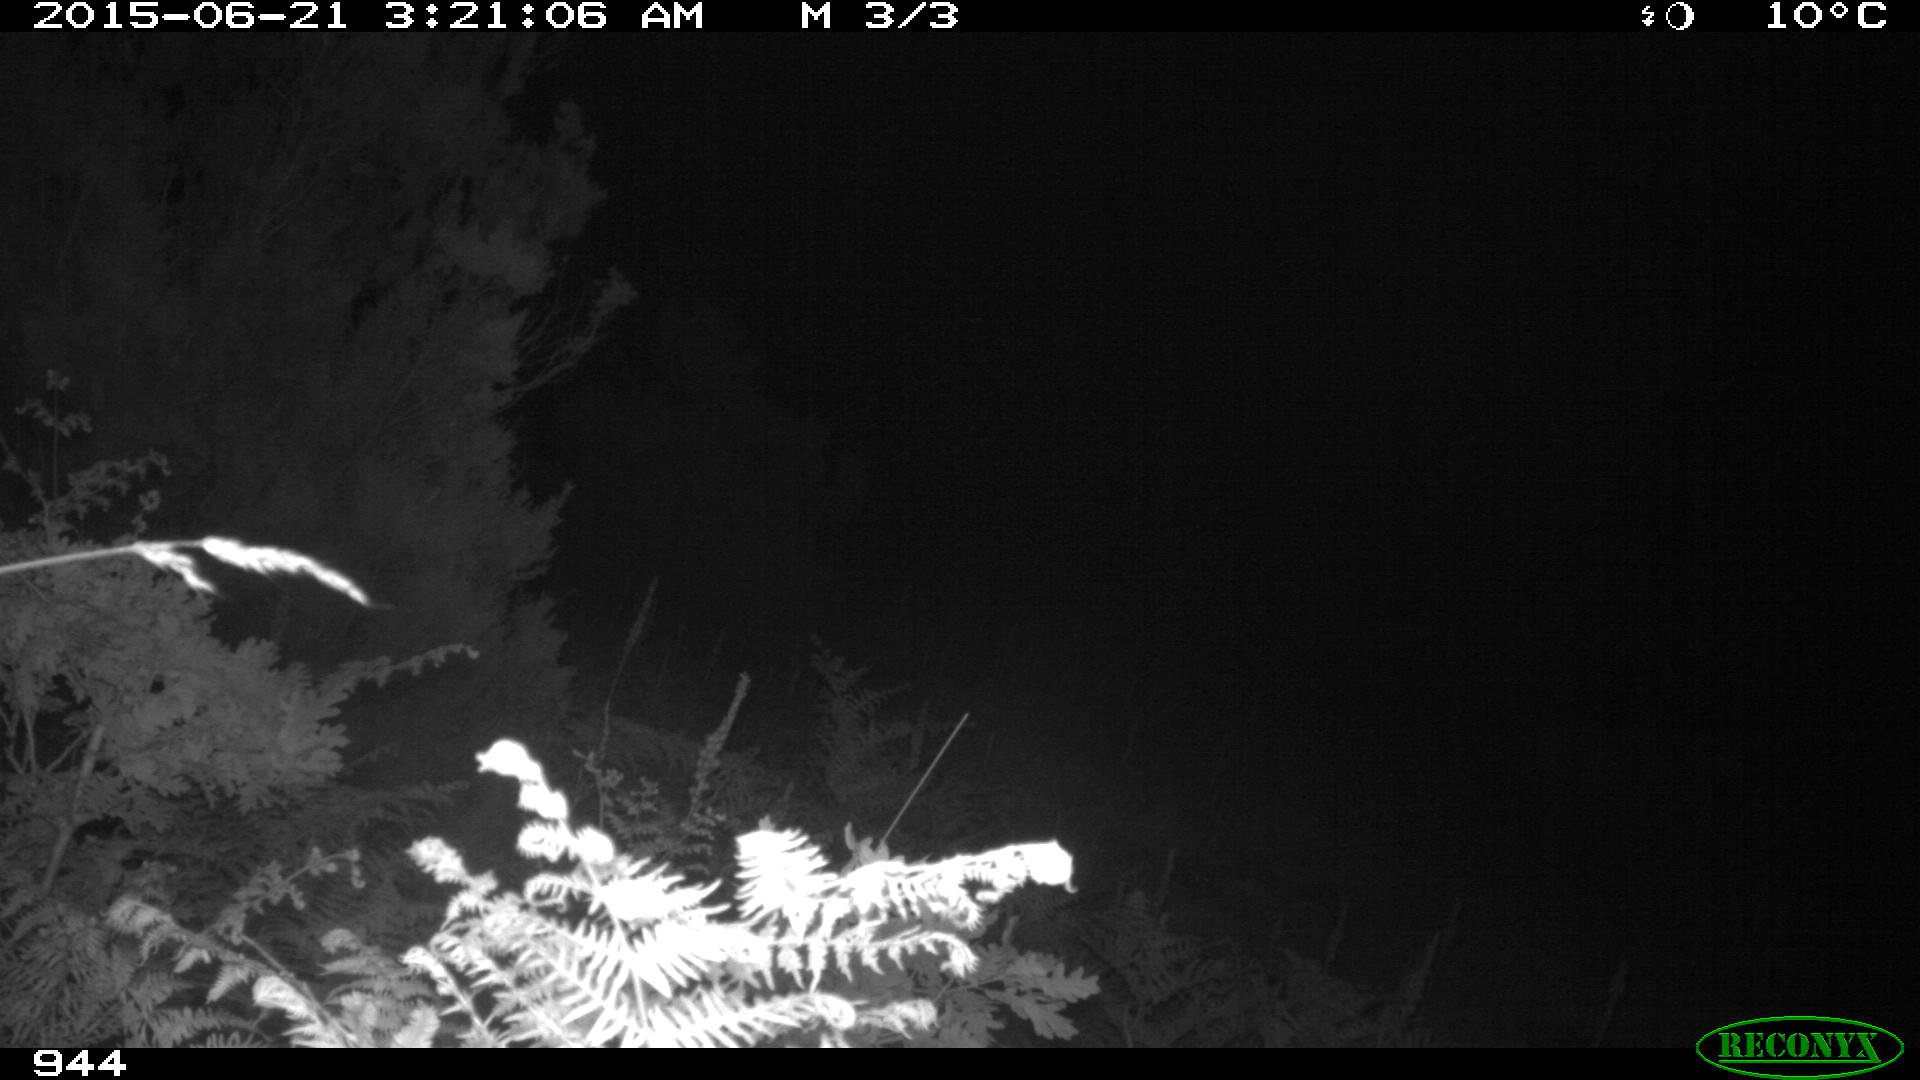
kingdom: Animalia
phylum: Chordata
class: Mammalia
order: Perissodactyla
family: Equidae
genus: Equus
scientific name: Equus caballus
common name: Horse
